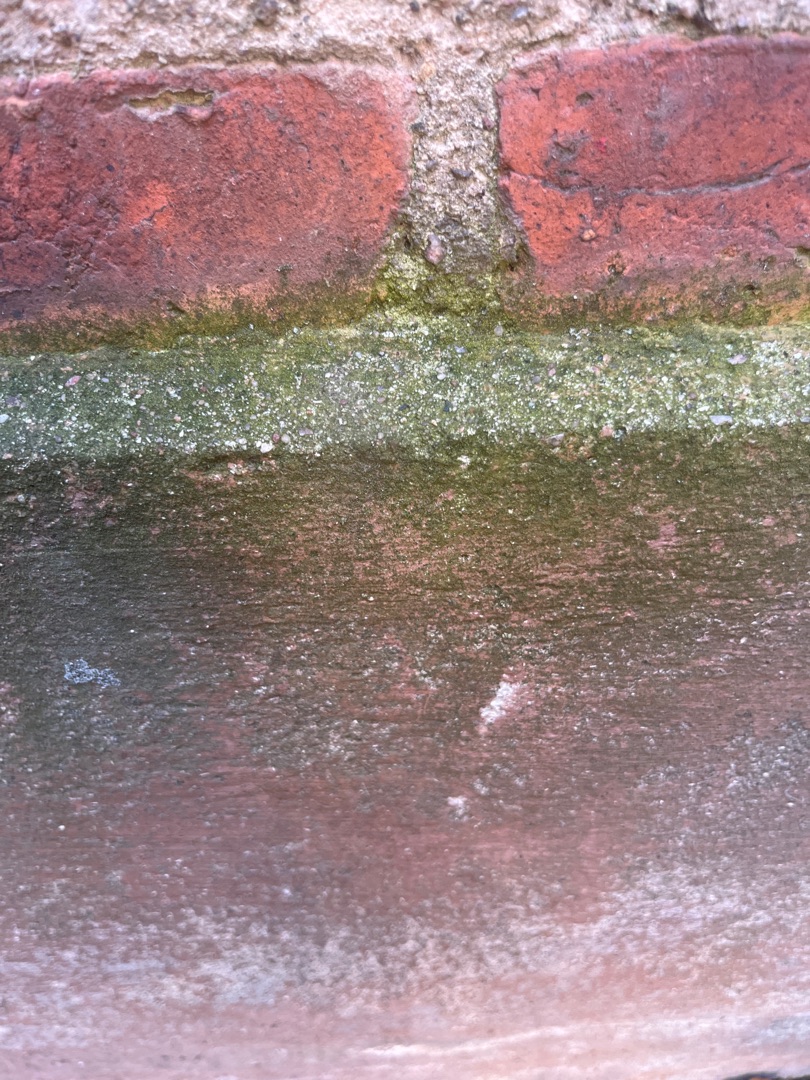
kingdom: Animalia
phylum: Chordata
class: Mammalia
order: Artiodactyla
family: Cervidae
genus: Capreolus
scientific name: Capreolus capreolus
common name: Rådyr
